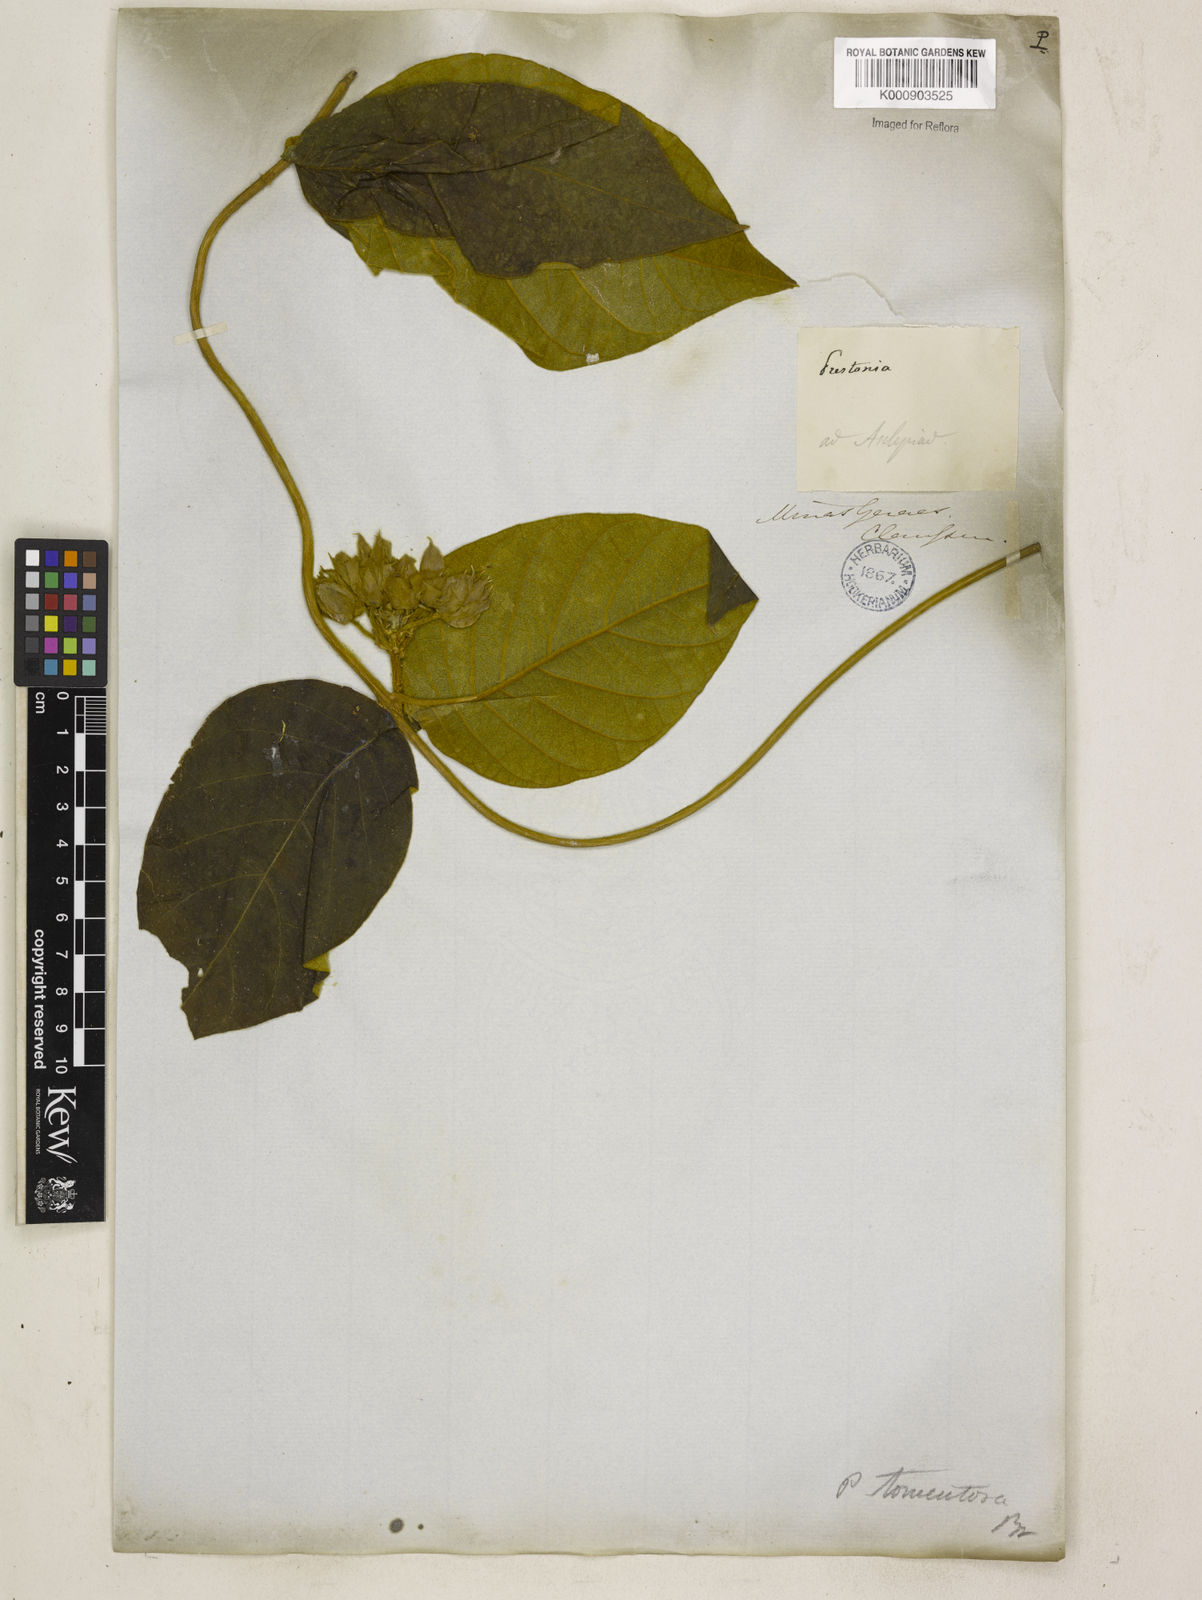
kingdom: Plantae
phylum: Tracheophyta
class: Magnoliopsida
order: Gentianales
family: Apocynaceae
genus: Prestonia
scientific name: Prestonia tomentosa
